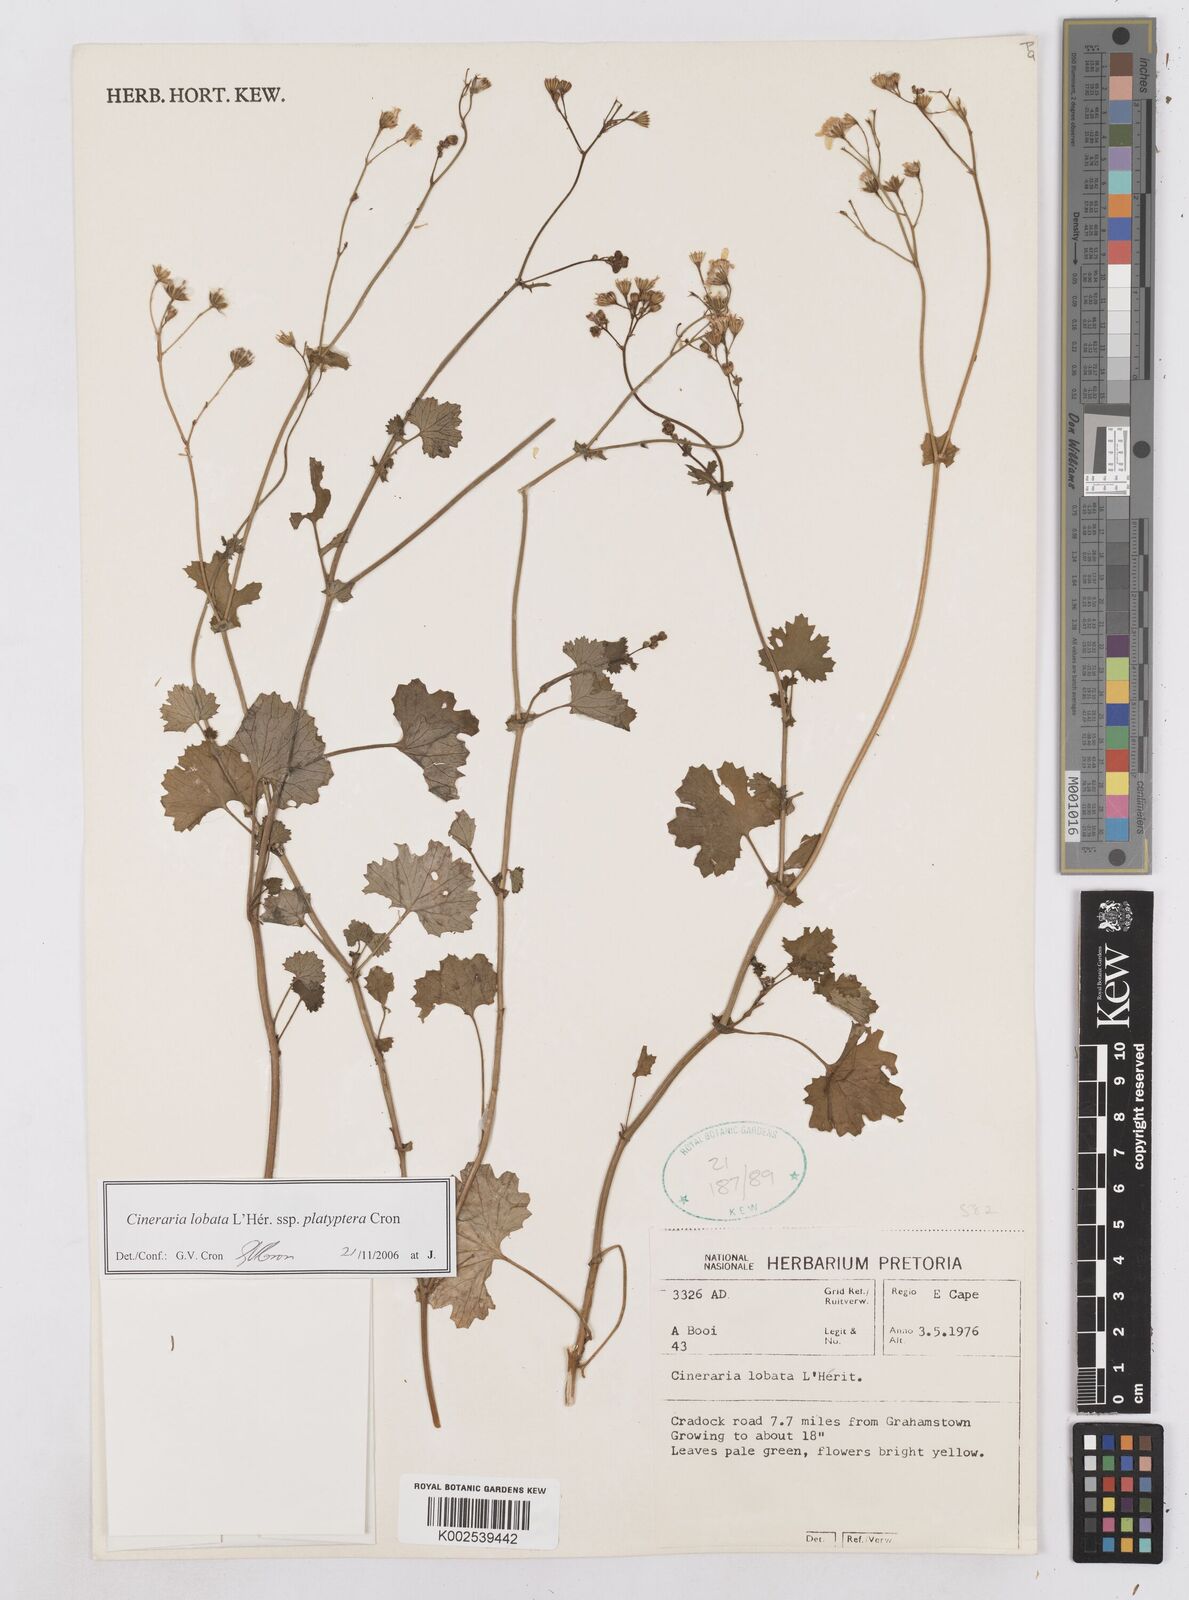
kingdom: Plantae
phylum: Tracheophyta
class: Magnoliopsida
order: Asterales
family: Asteraceae
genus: Cineraria
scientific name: Cineraria lobata
